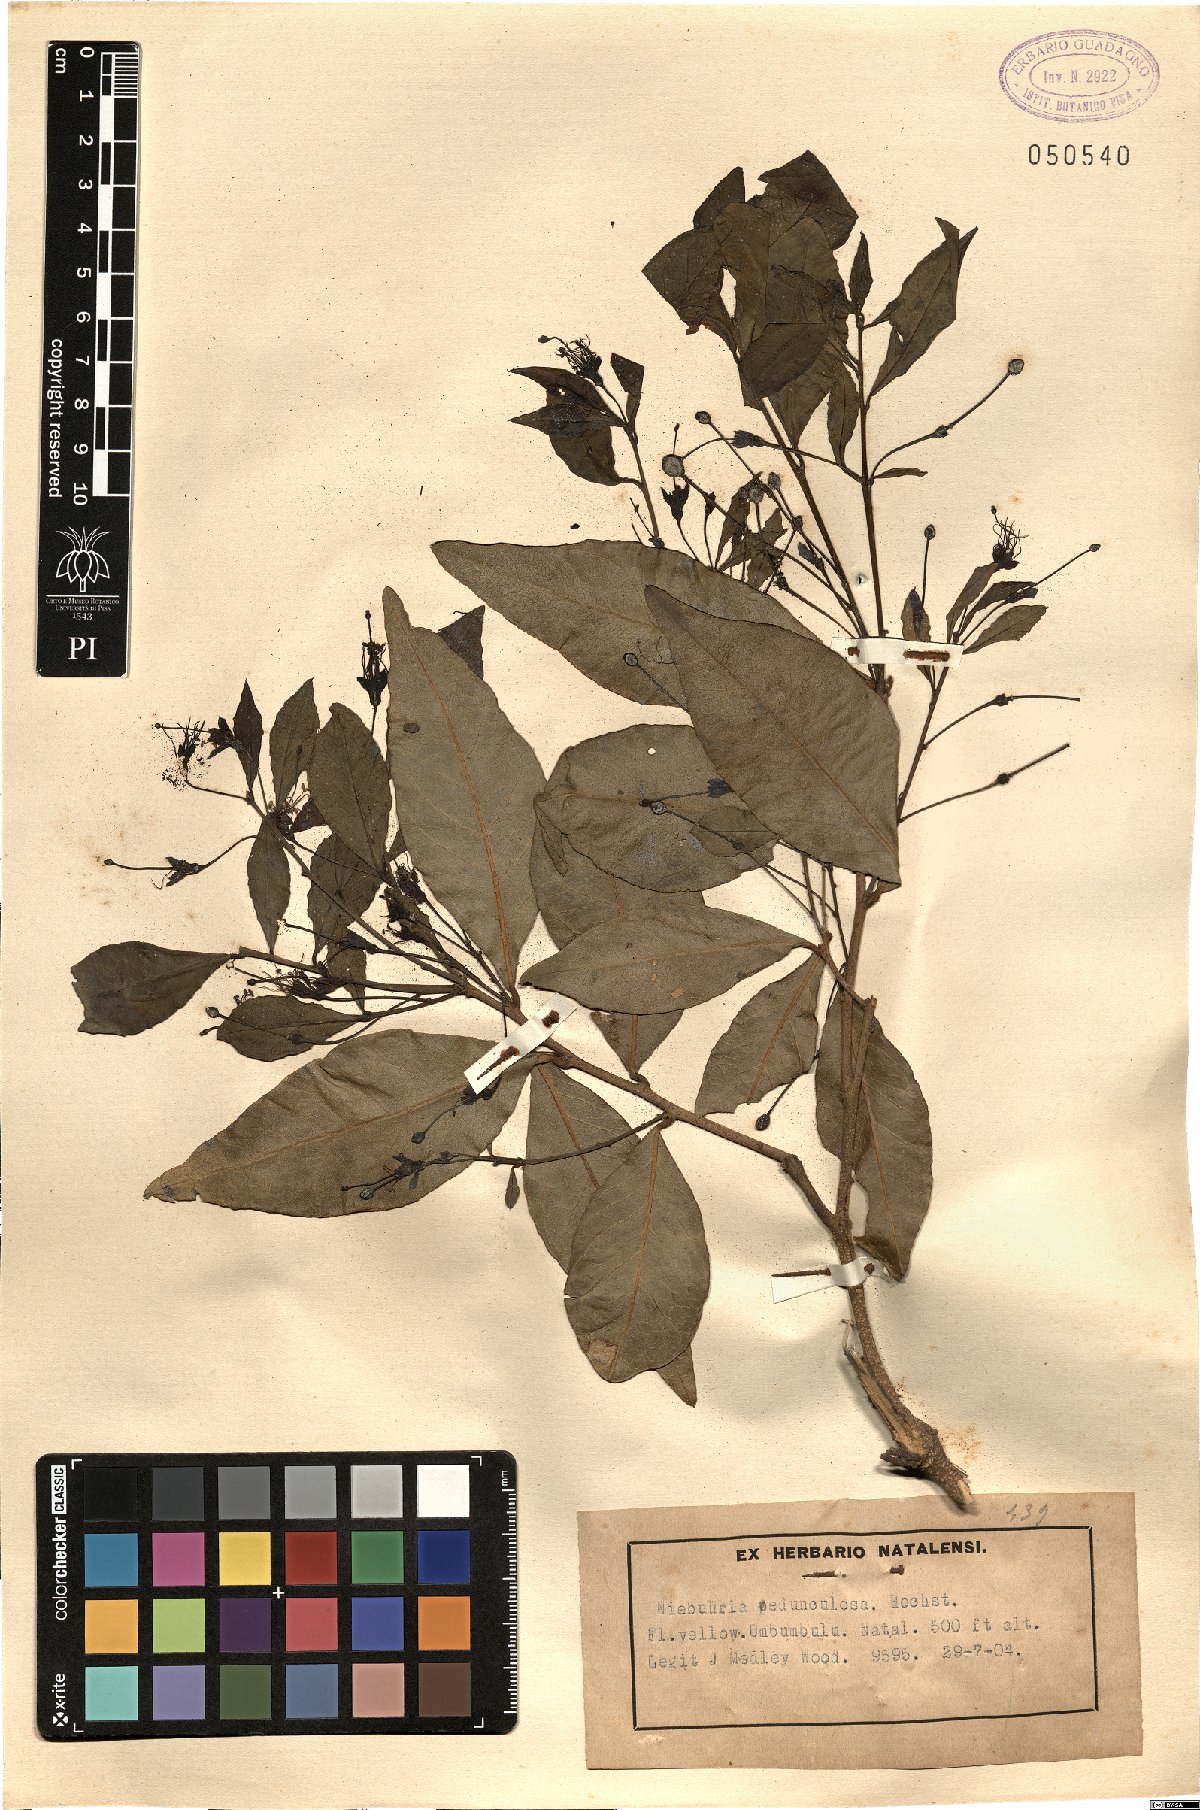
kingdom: Plantae
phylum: Tracheophyta
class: Magnoliopsida
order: Brassicales
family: Capparaceae
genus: Maerua
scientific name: Maerua racemulosa
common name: Forest bush-cherry
